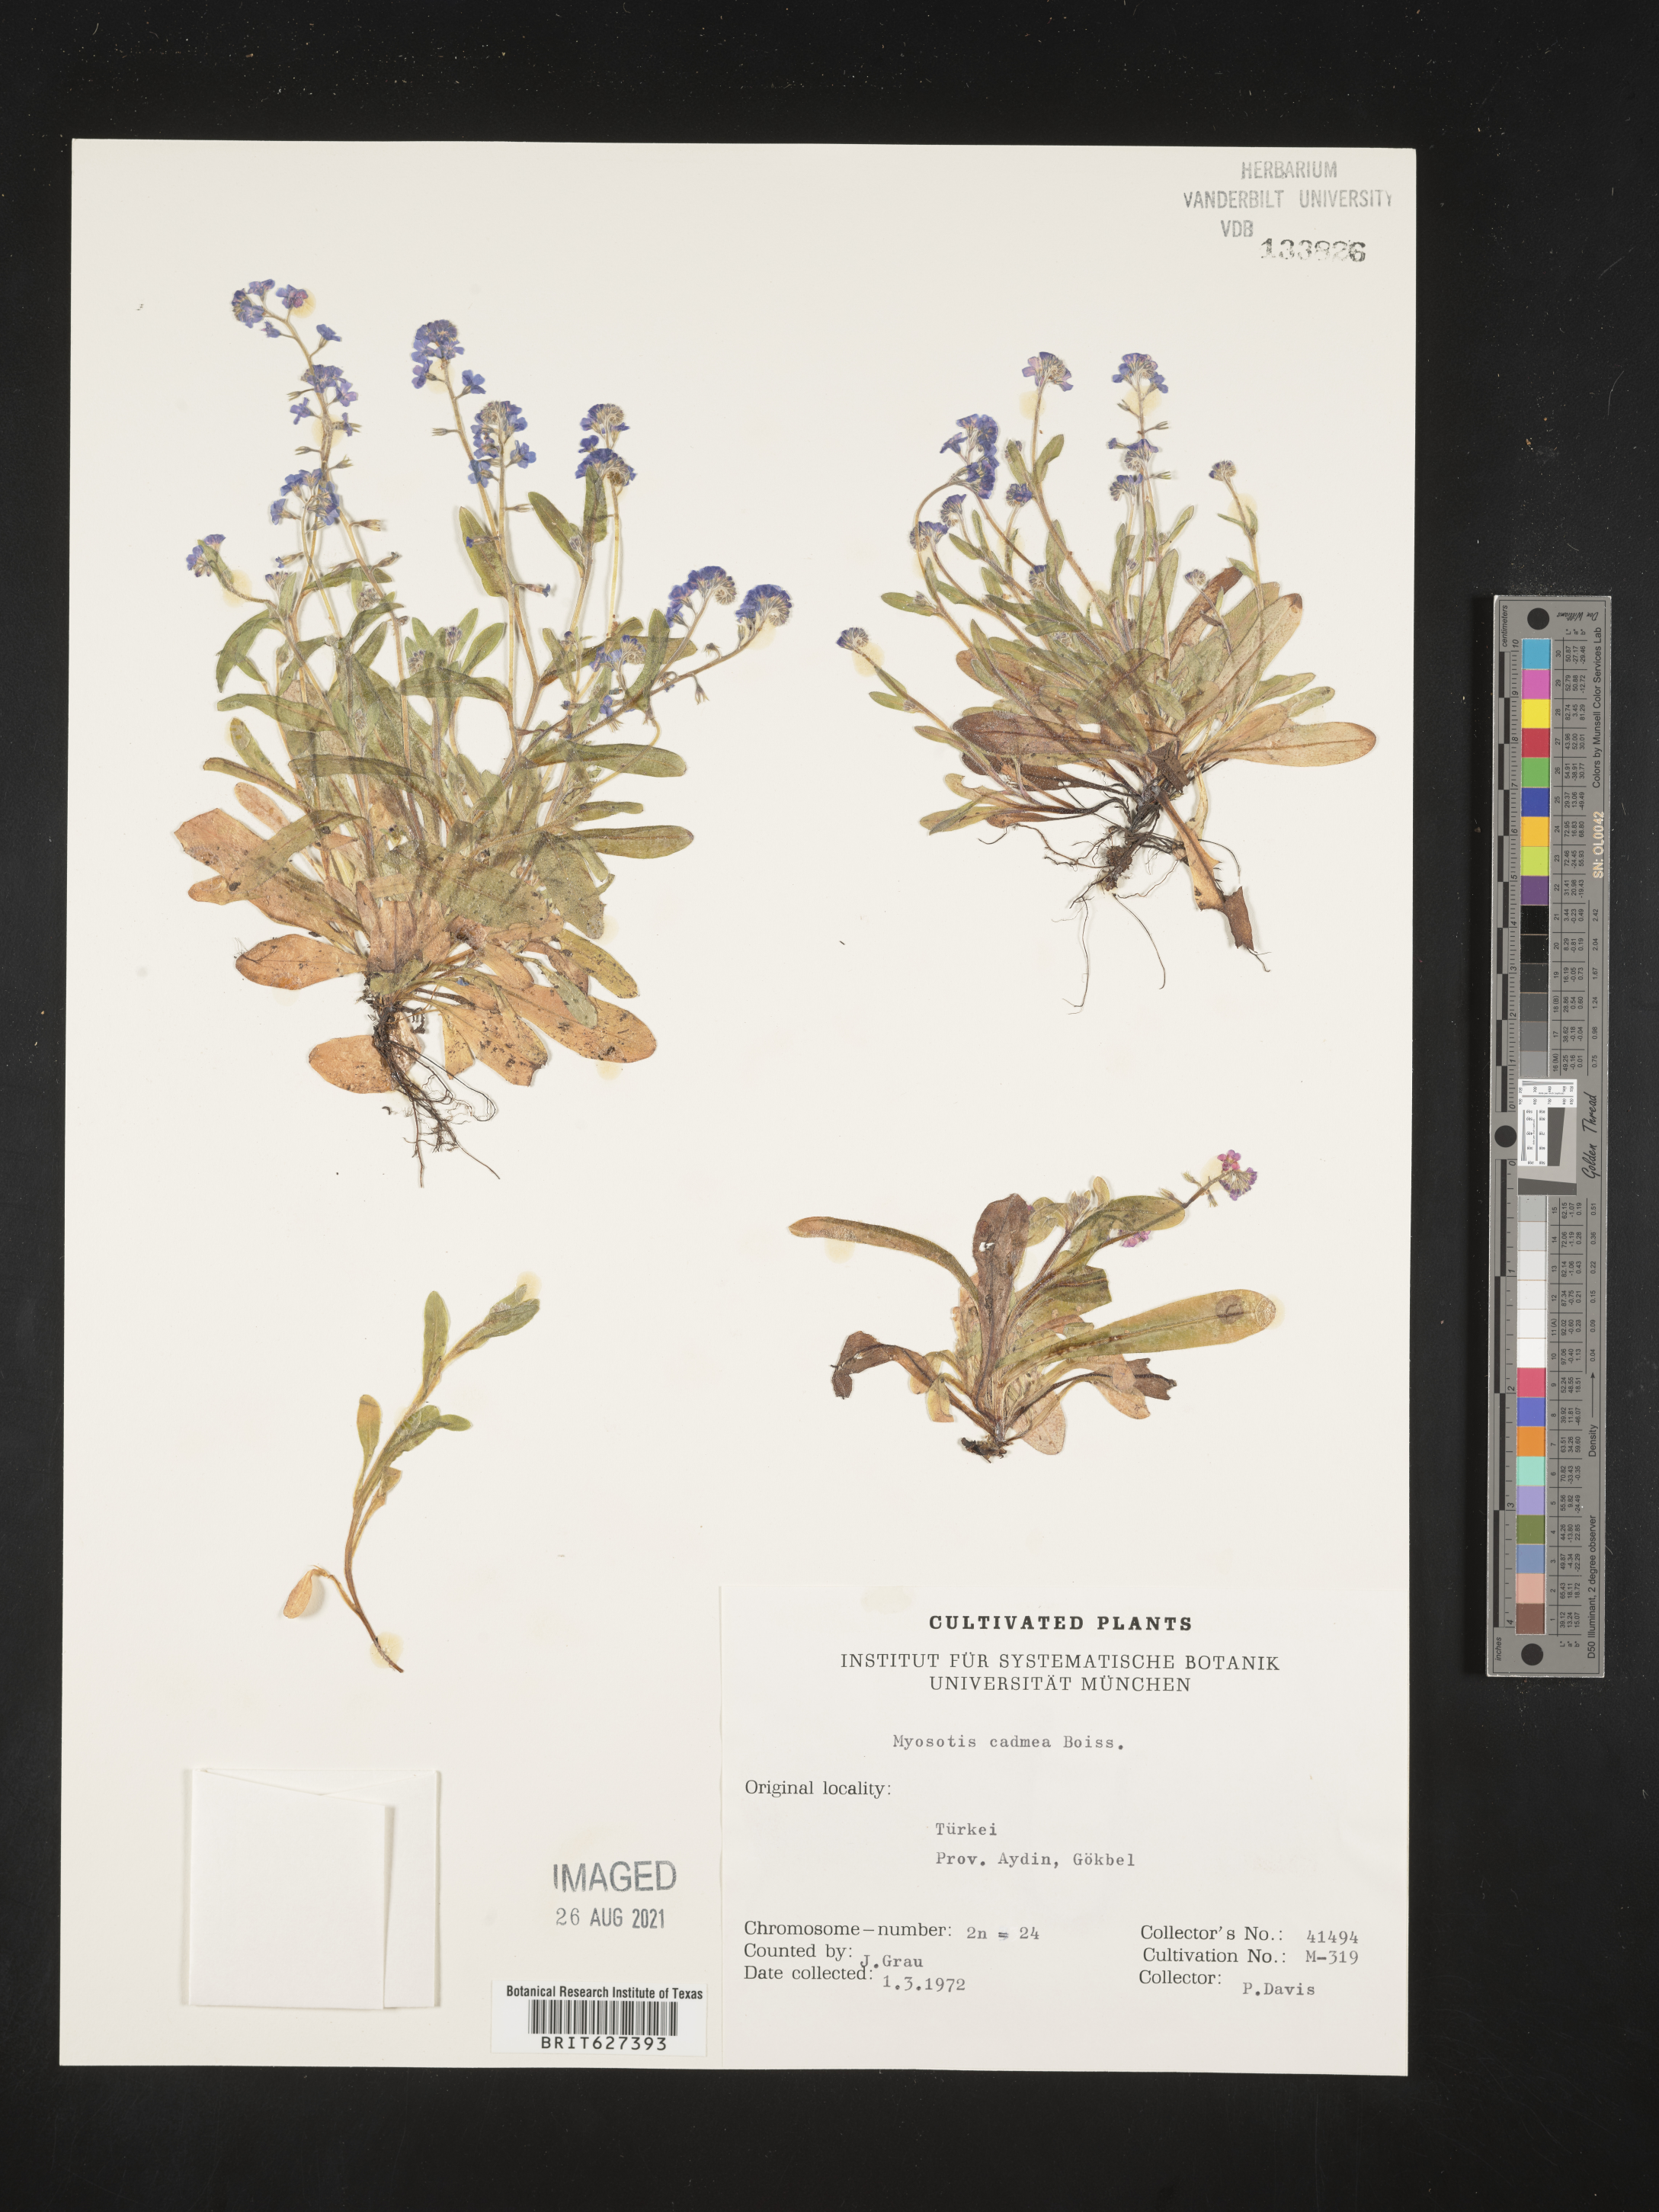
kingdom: Plantae
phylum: Tracheophyta
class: Magnoliopsida
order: Boraginales
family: Boraginaceae
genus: Myosotis
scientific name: Myosotis cadmea
